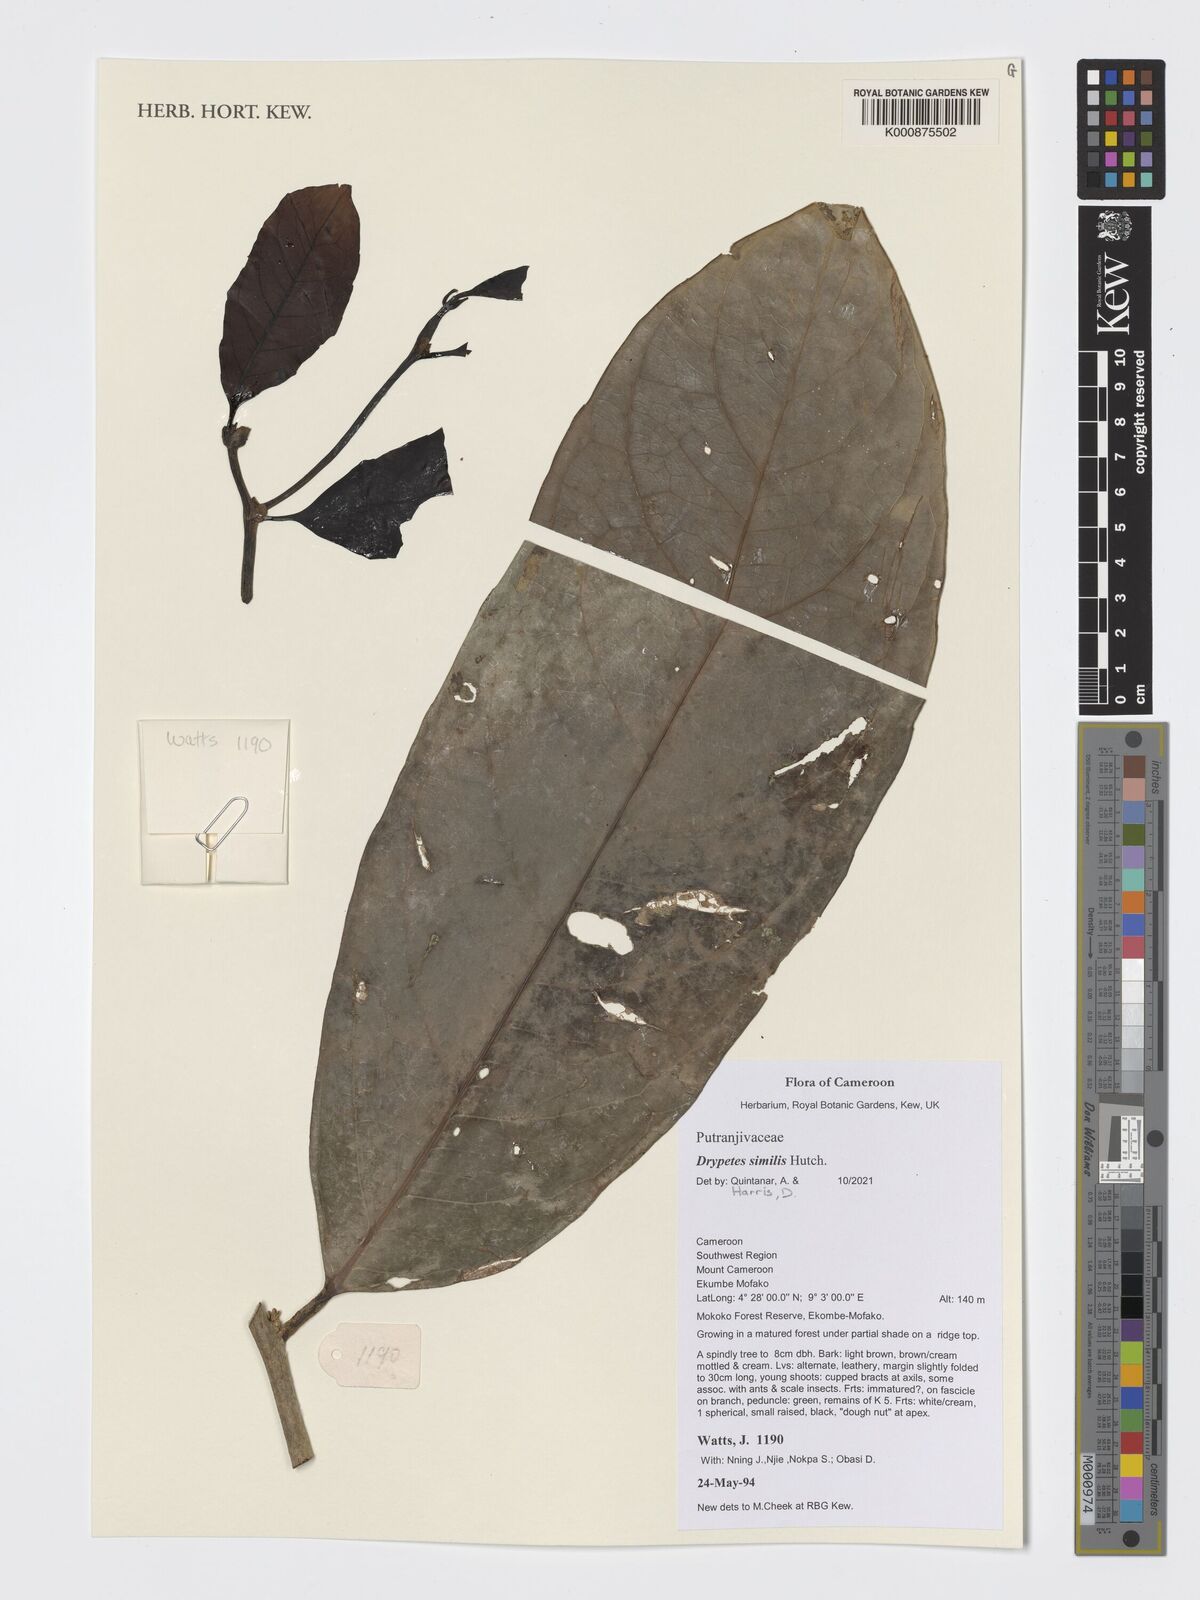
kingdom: Plantae
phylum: Tracheophyta
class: Magnoliopsida
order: Malpighiales
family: Putranjivaceae
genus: Drypetes
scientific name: Drypetes similis
